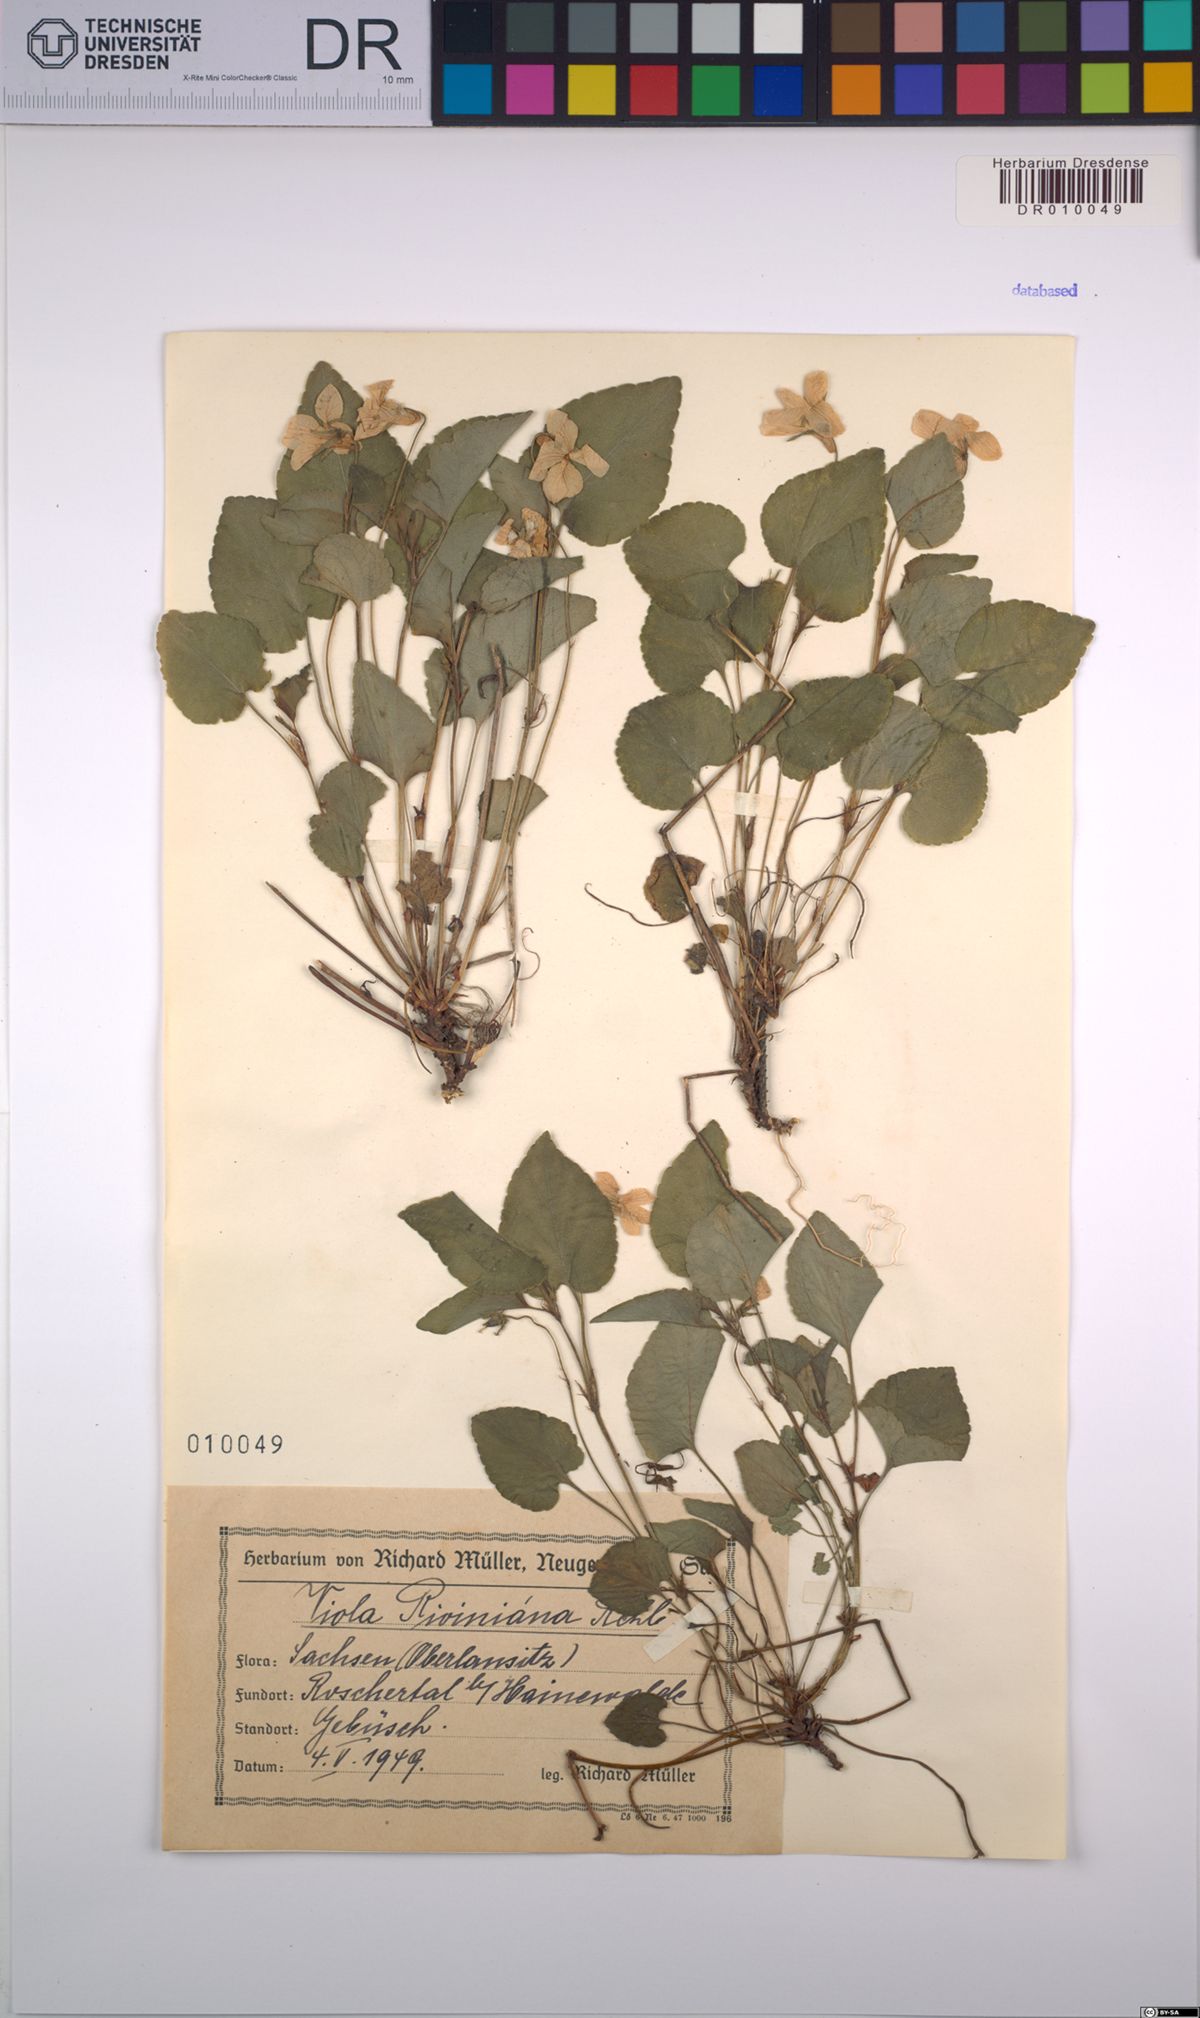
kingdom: Plantae
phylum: Tracheophyta
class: Magnoliopsida
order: Malpighiales
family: Violaceae
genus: Viola
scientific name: Viola riviniana
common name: Common dog-violet
